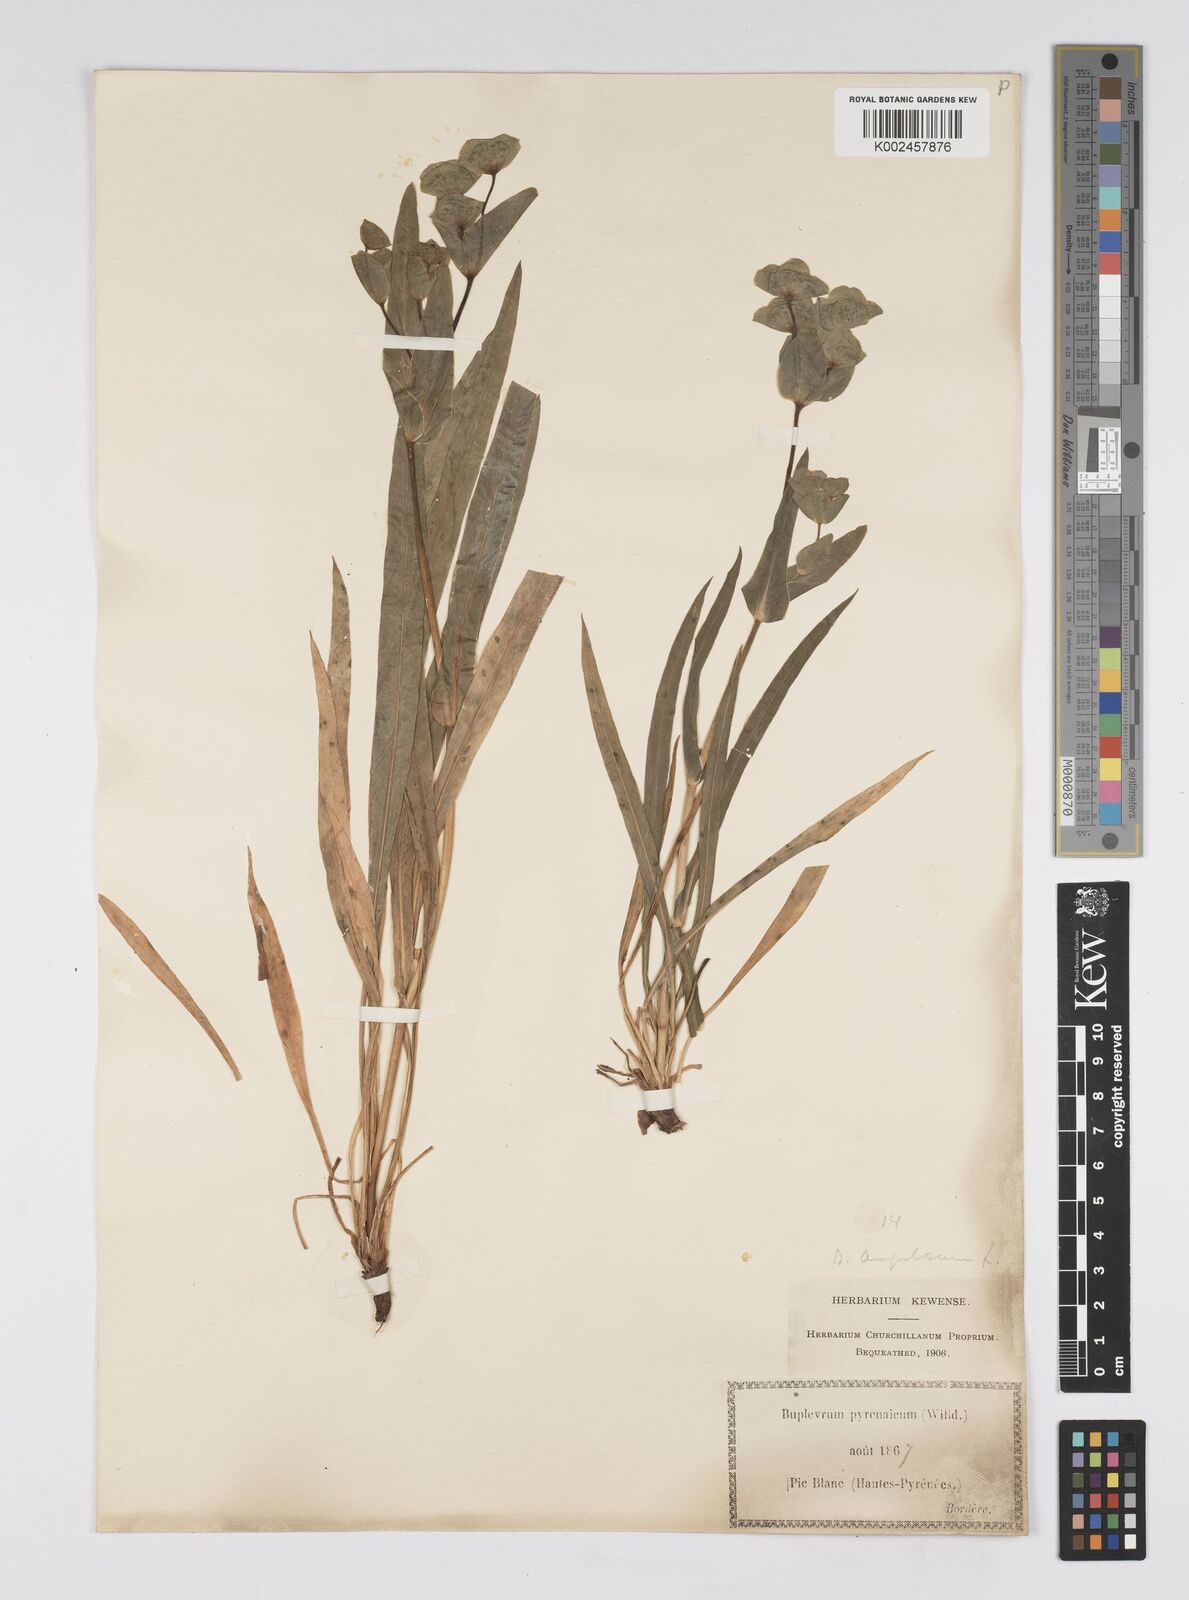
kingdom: Plantae
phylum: Tracheophyta
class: Magnoliopsida
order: Apiales
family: Apiaceae
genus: Bupleurum
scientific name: Bupleurum angulosum
